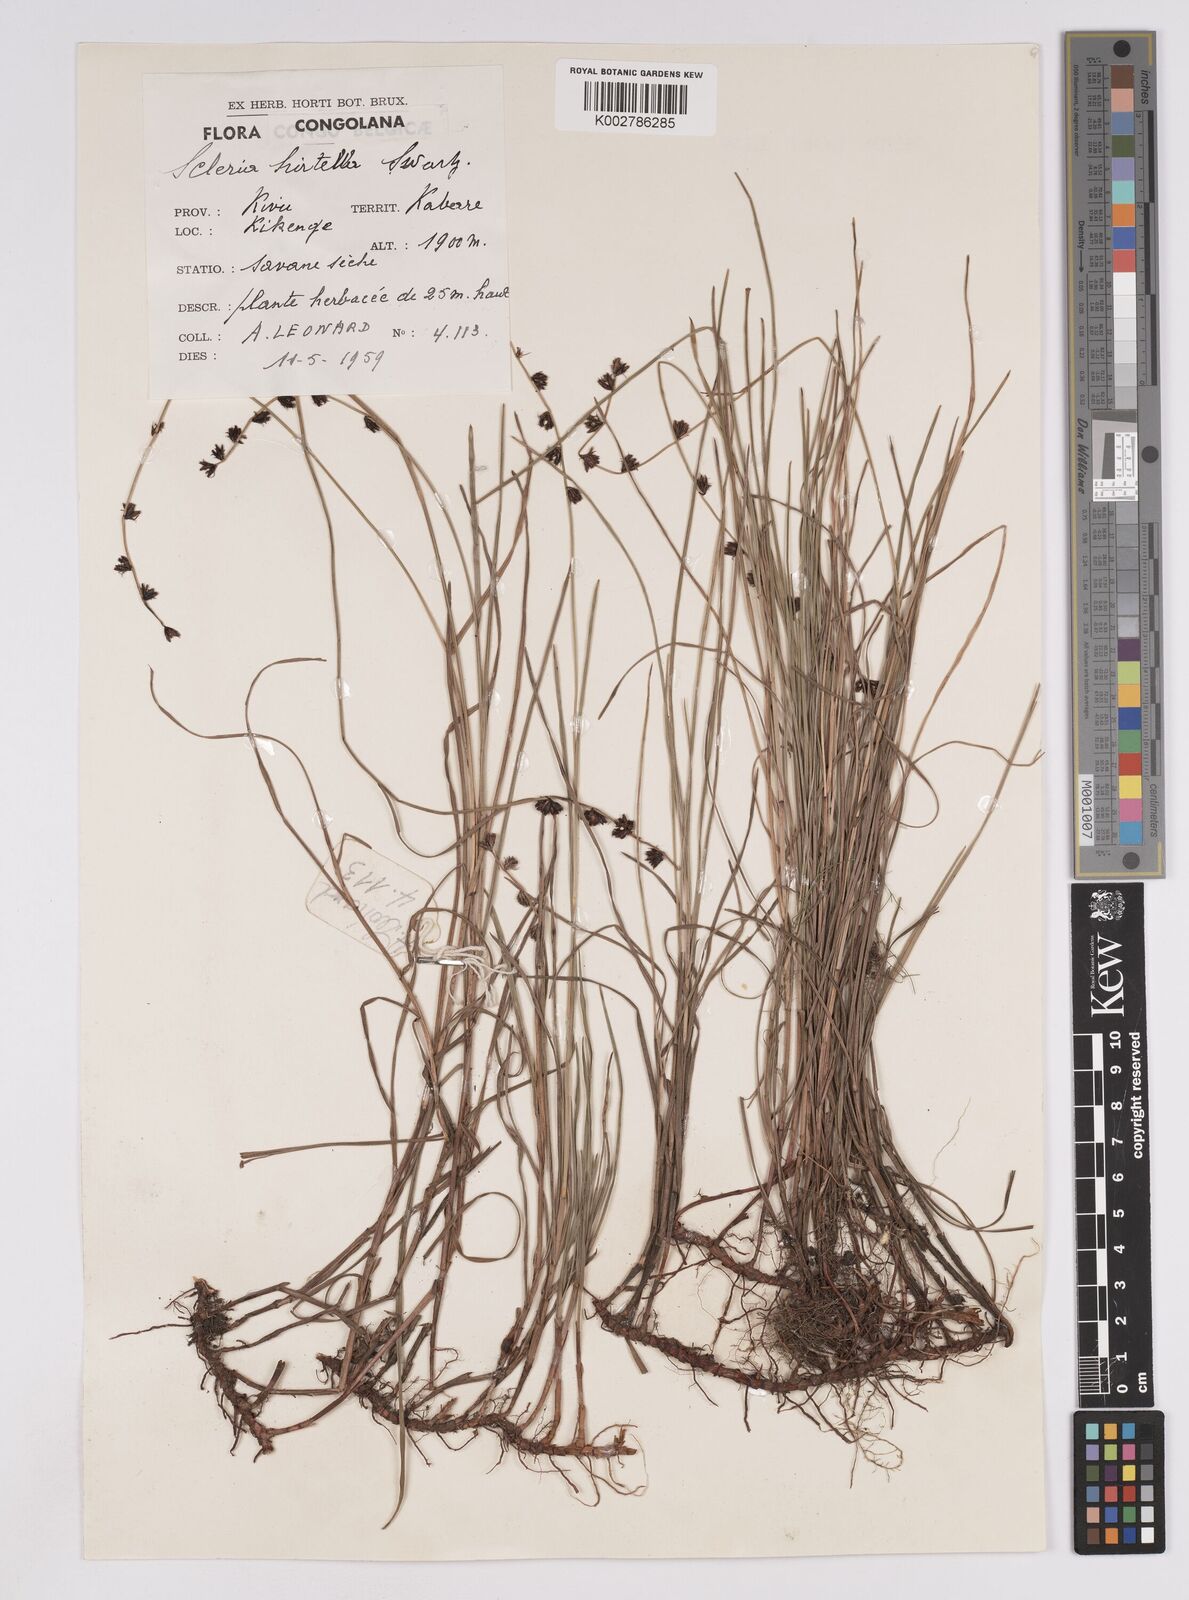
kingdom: Plantae
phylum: Tracheophyta
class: Liliopsida
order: Poales
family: Cyperaceae
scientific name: Cyperaceae
